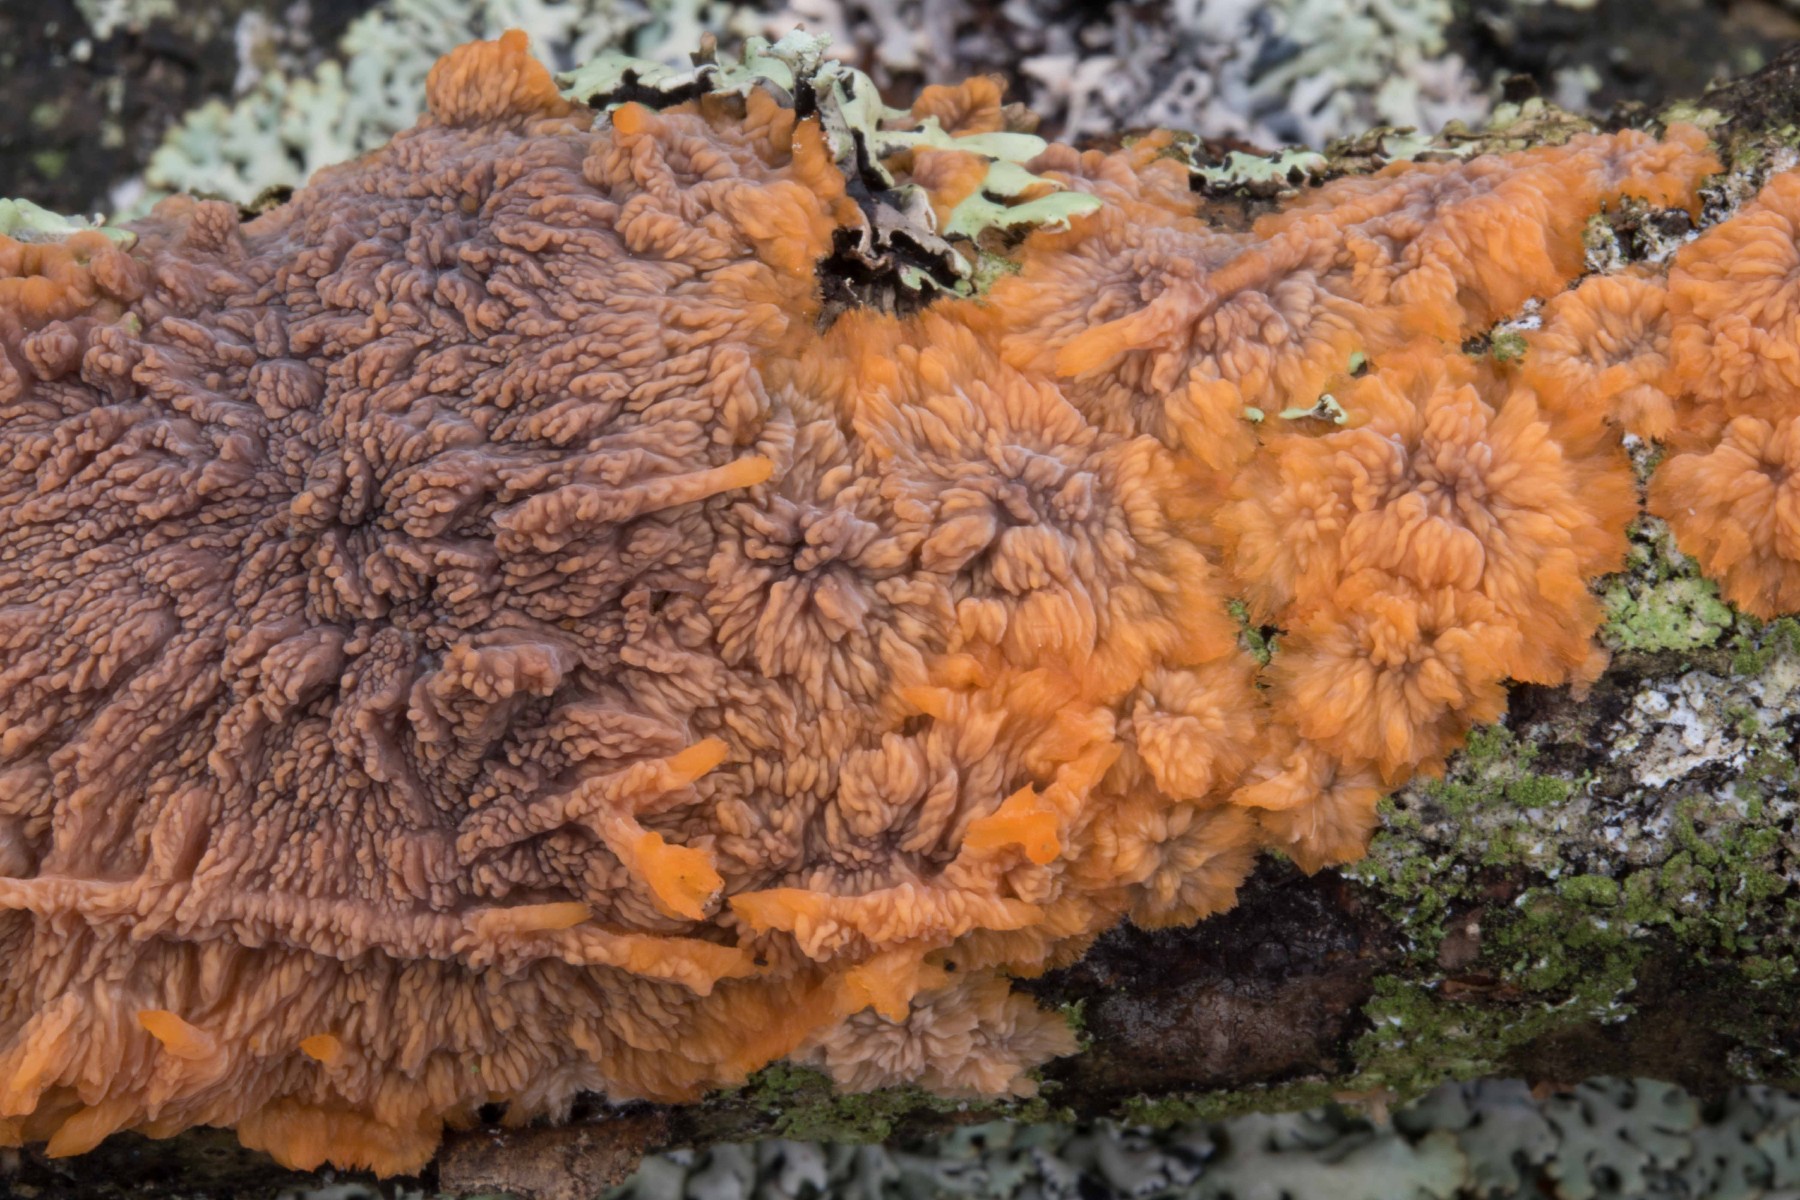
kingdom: Fungi
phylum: Basidiomycota
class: Agaricomycetes
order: Polyporales
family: Meruliaceae
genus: Phlebia
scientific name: Phlebia radiata
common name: stråle-åresvamp
